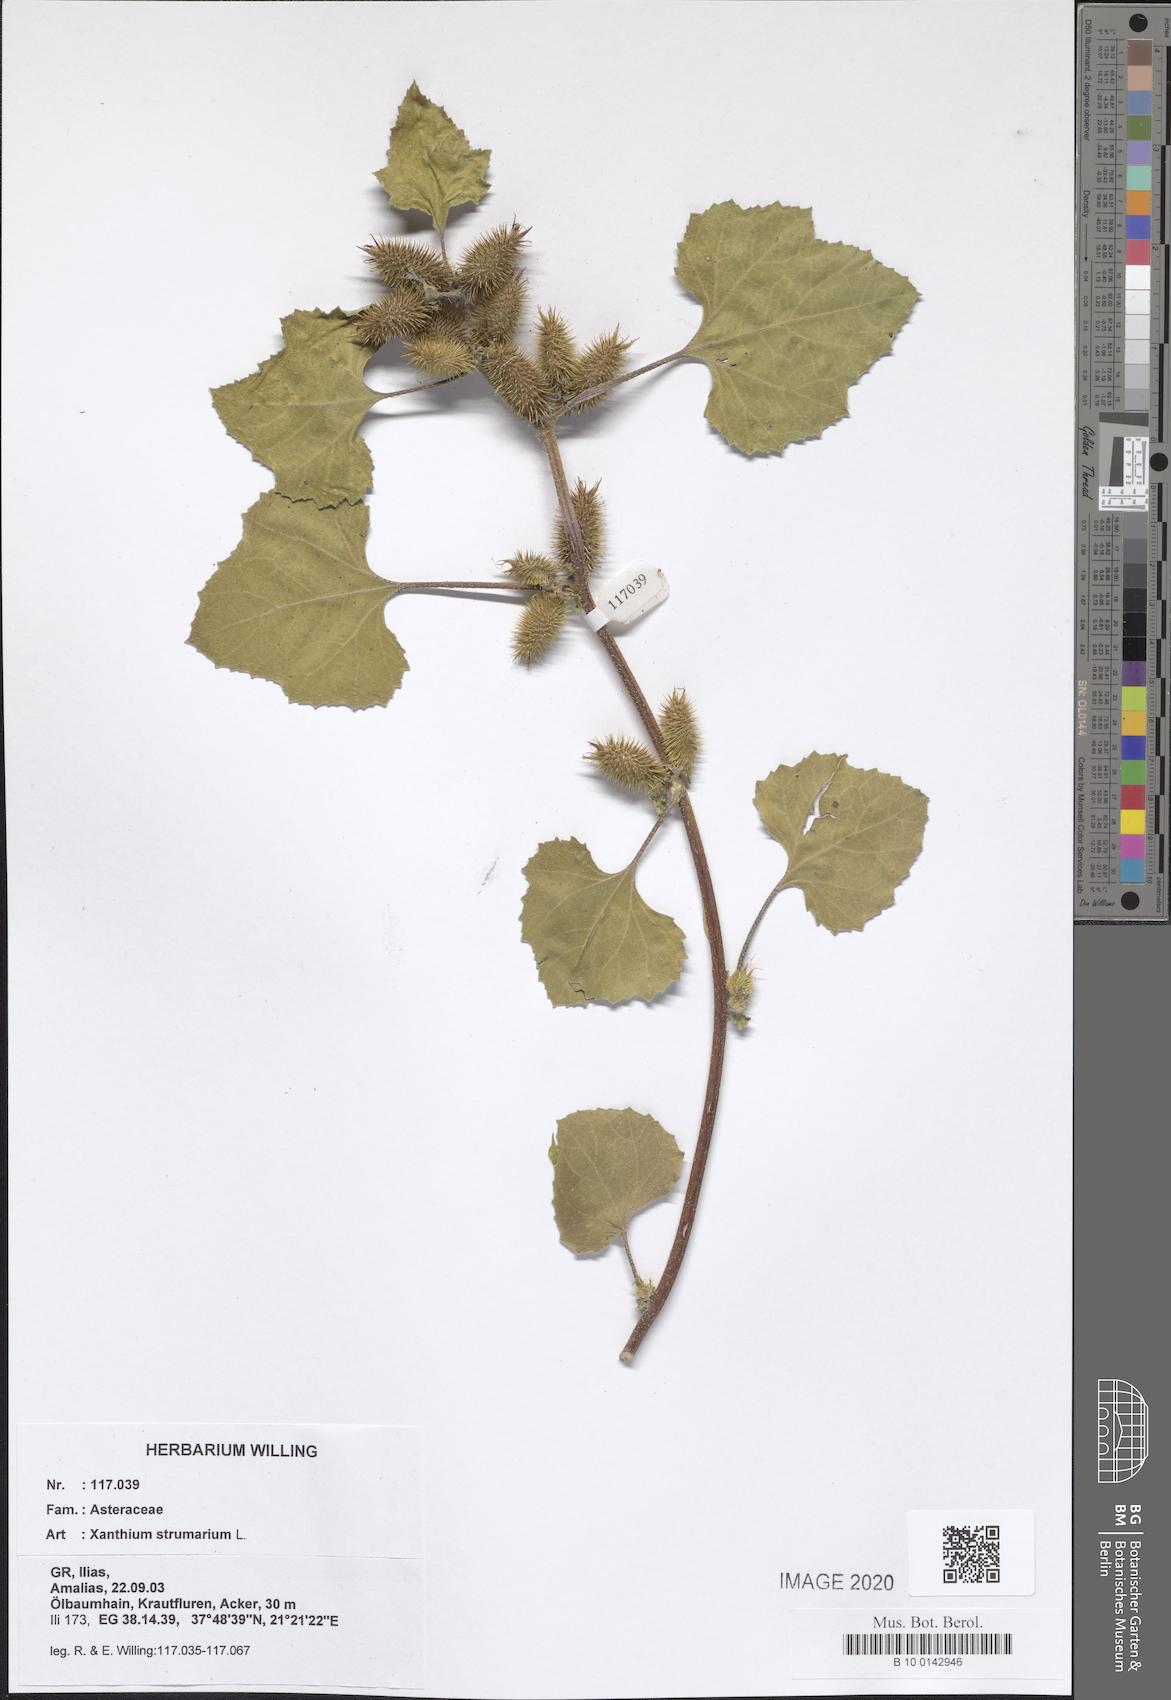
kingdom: Plantae
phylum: Tracheophyta
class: Magnoliopsida
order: Asterales
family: Asteraceae
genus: Xanthium
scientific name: Xanthium strumarium
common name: Rough cocklebur
